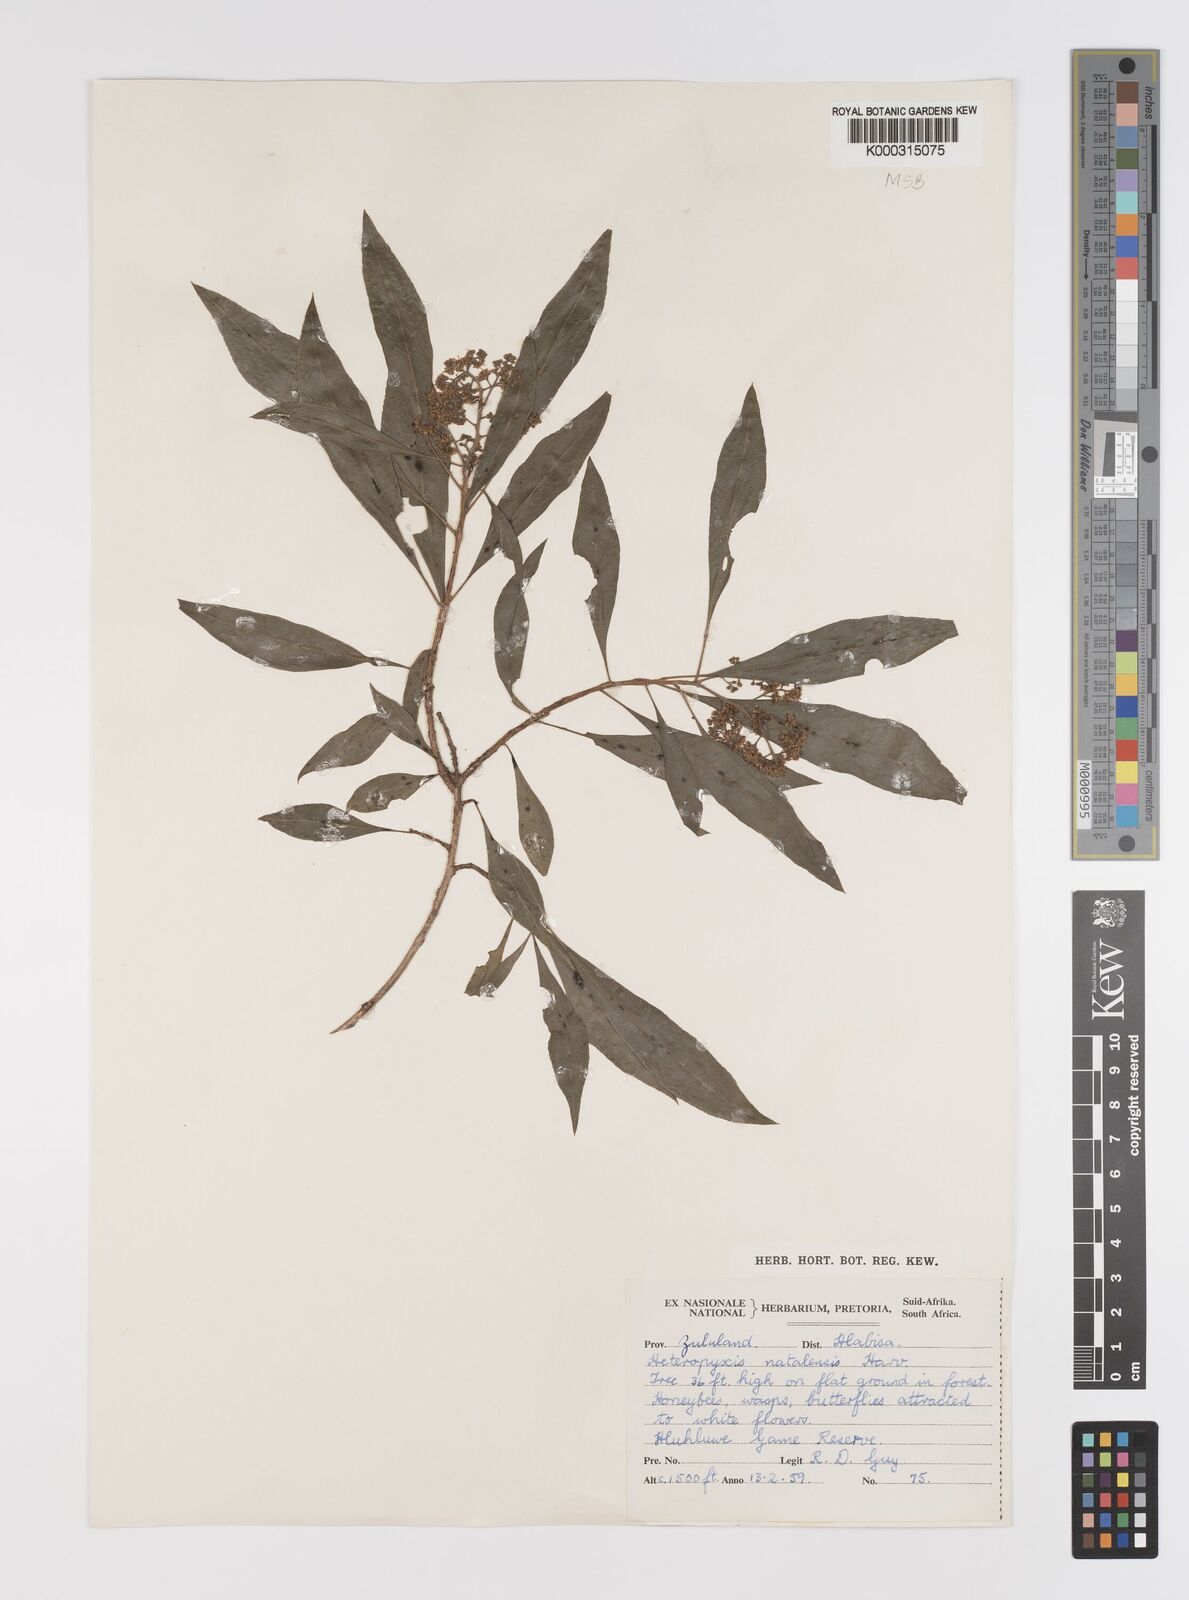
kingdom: Plantae
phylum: Tracheophyta
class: Magnoliopsida
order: Myrtales
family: Myrtaceae
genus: Heteropyxis
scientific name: Heteropyxis natalensis
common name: Lavender tree
